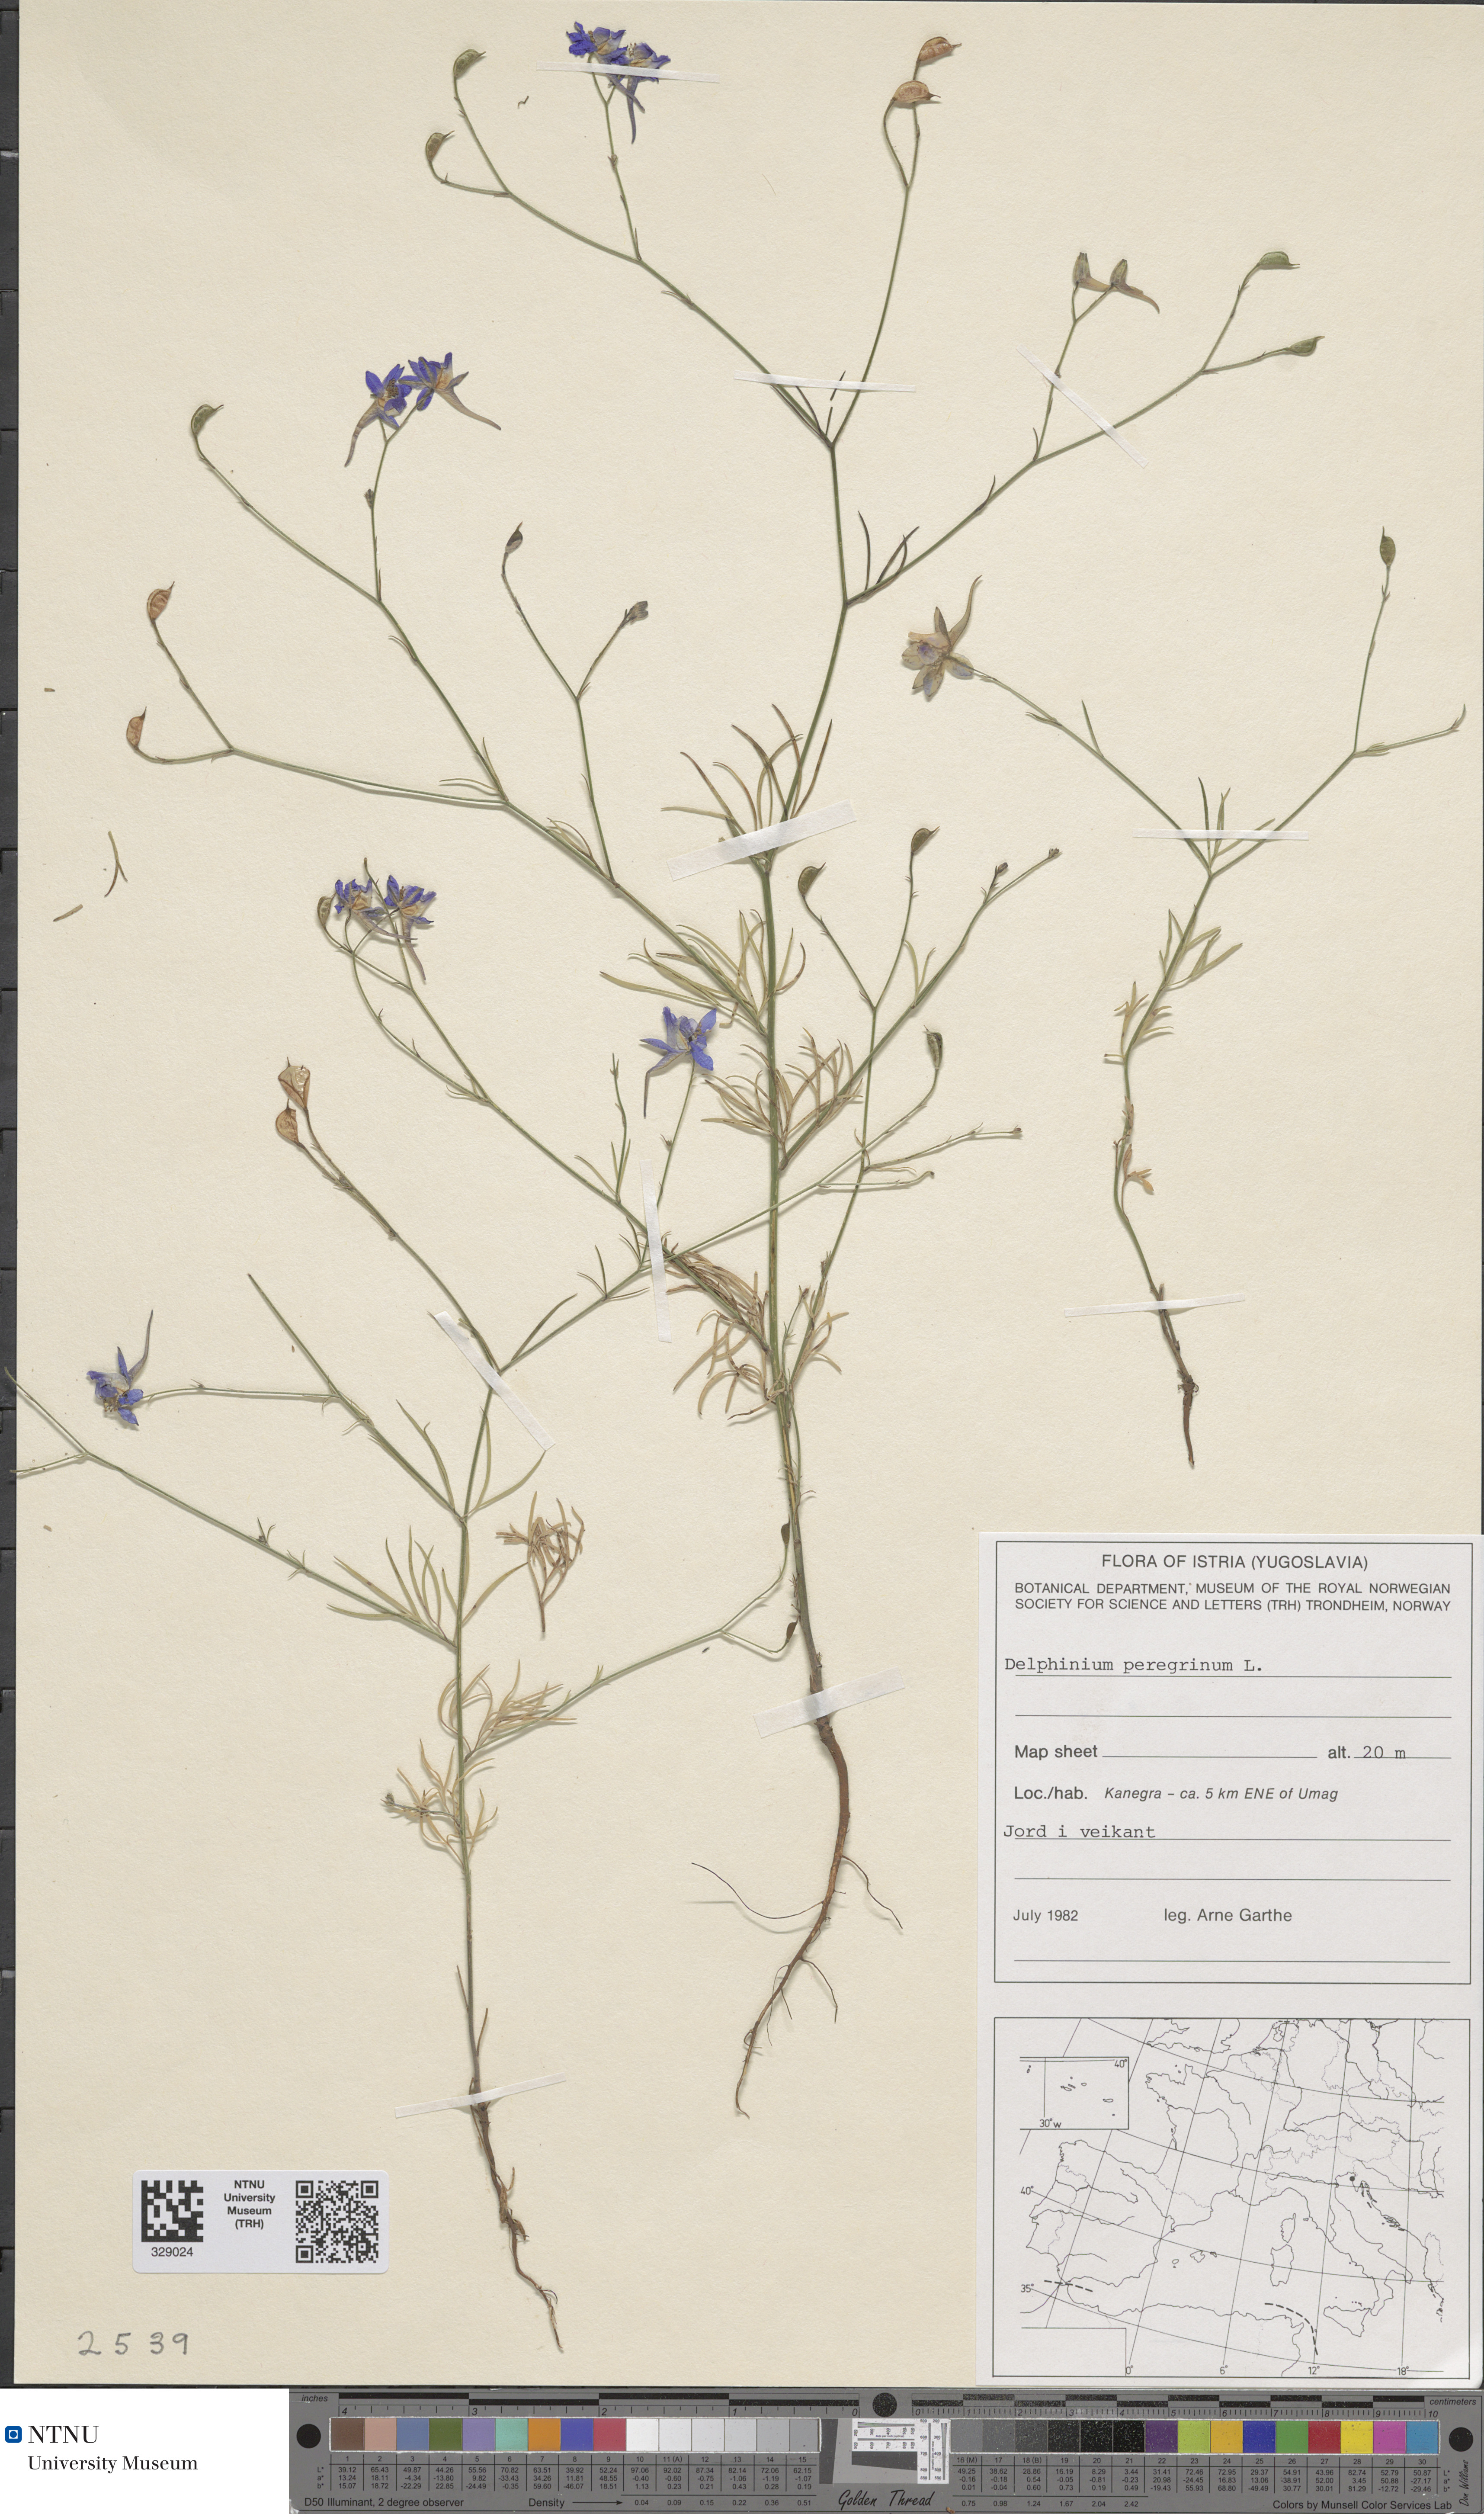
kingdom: Plantae
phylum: Tracheophyta
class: Magnoliopsida
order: Ranunculales
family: Ranunculaceae
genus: Delphinium
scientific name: Delphinium peregrinum
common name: Violet larkspur
